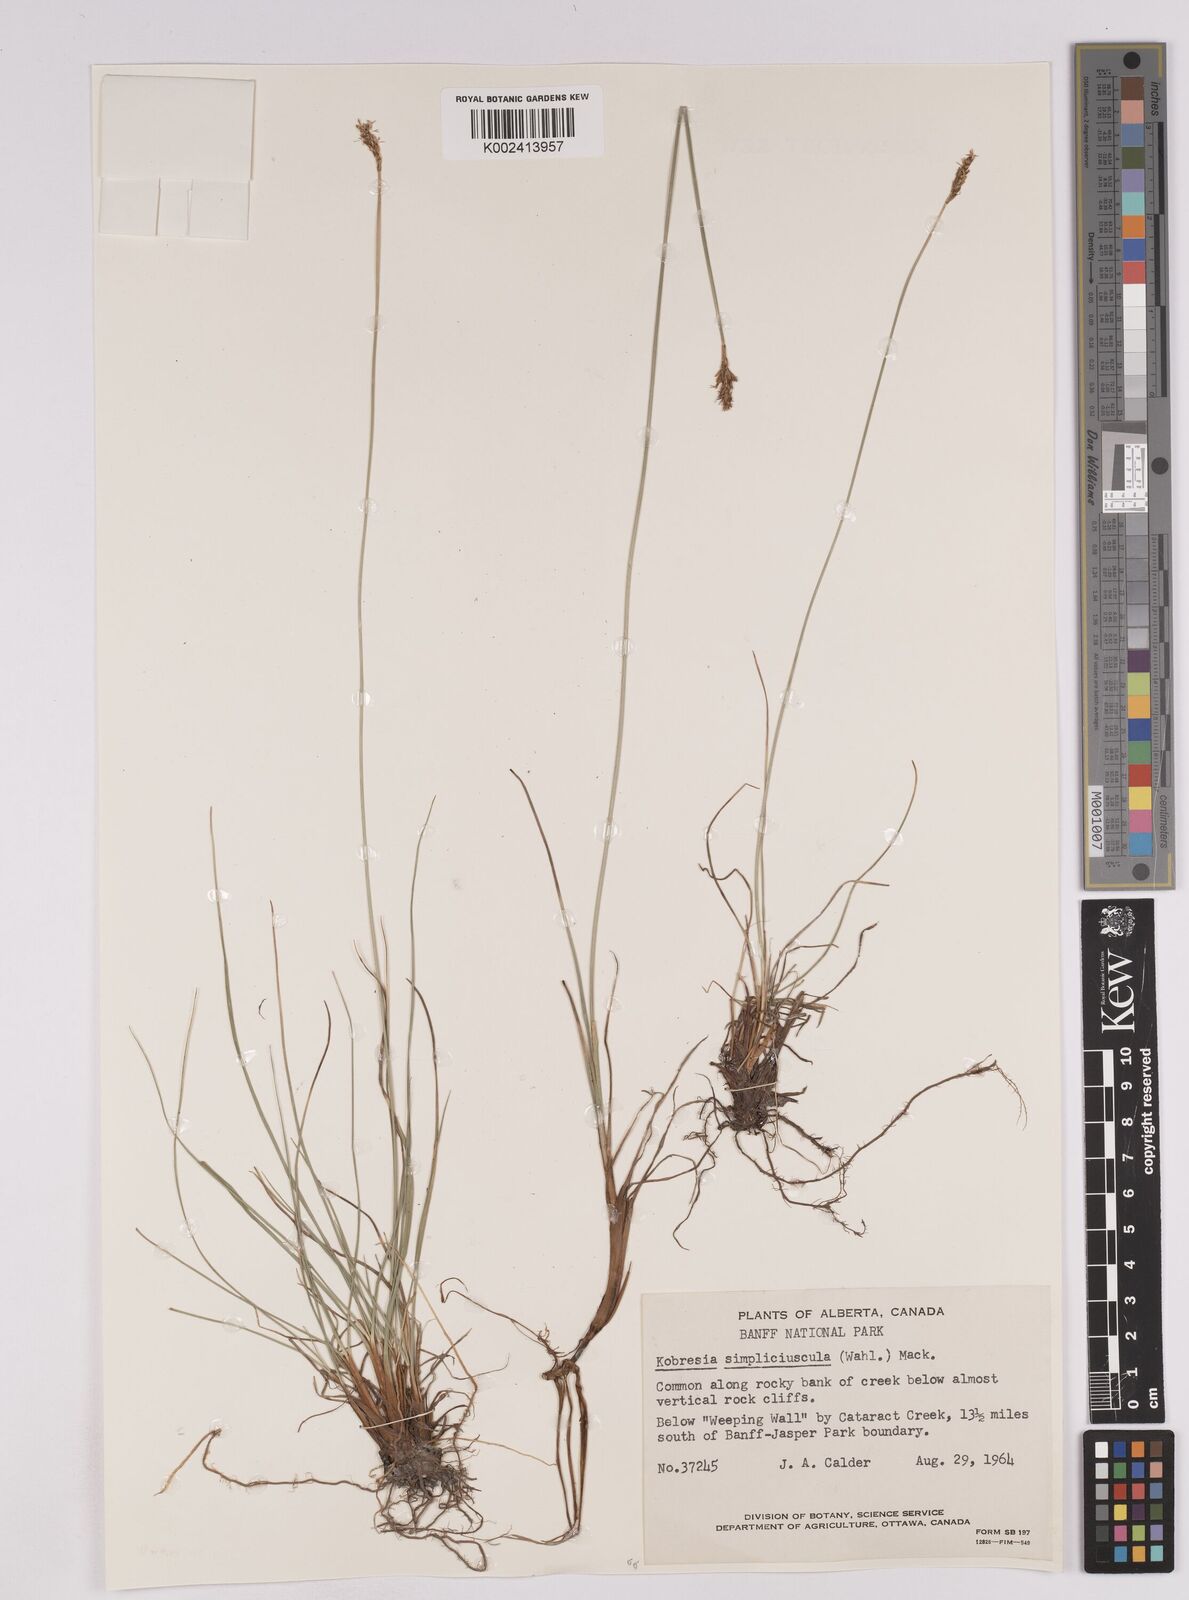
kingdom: Plantae
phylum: Tracheophyta
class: Liliopsida
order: Poales
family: Cyperaceae
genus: Carex
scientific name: Carex simpliciuscula
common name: Simple bog sedge
